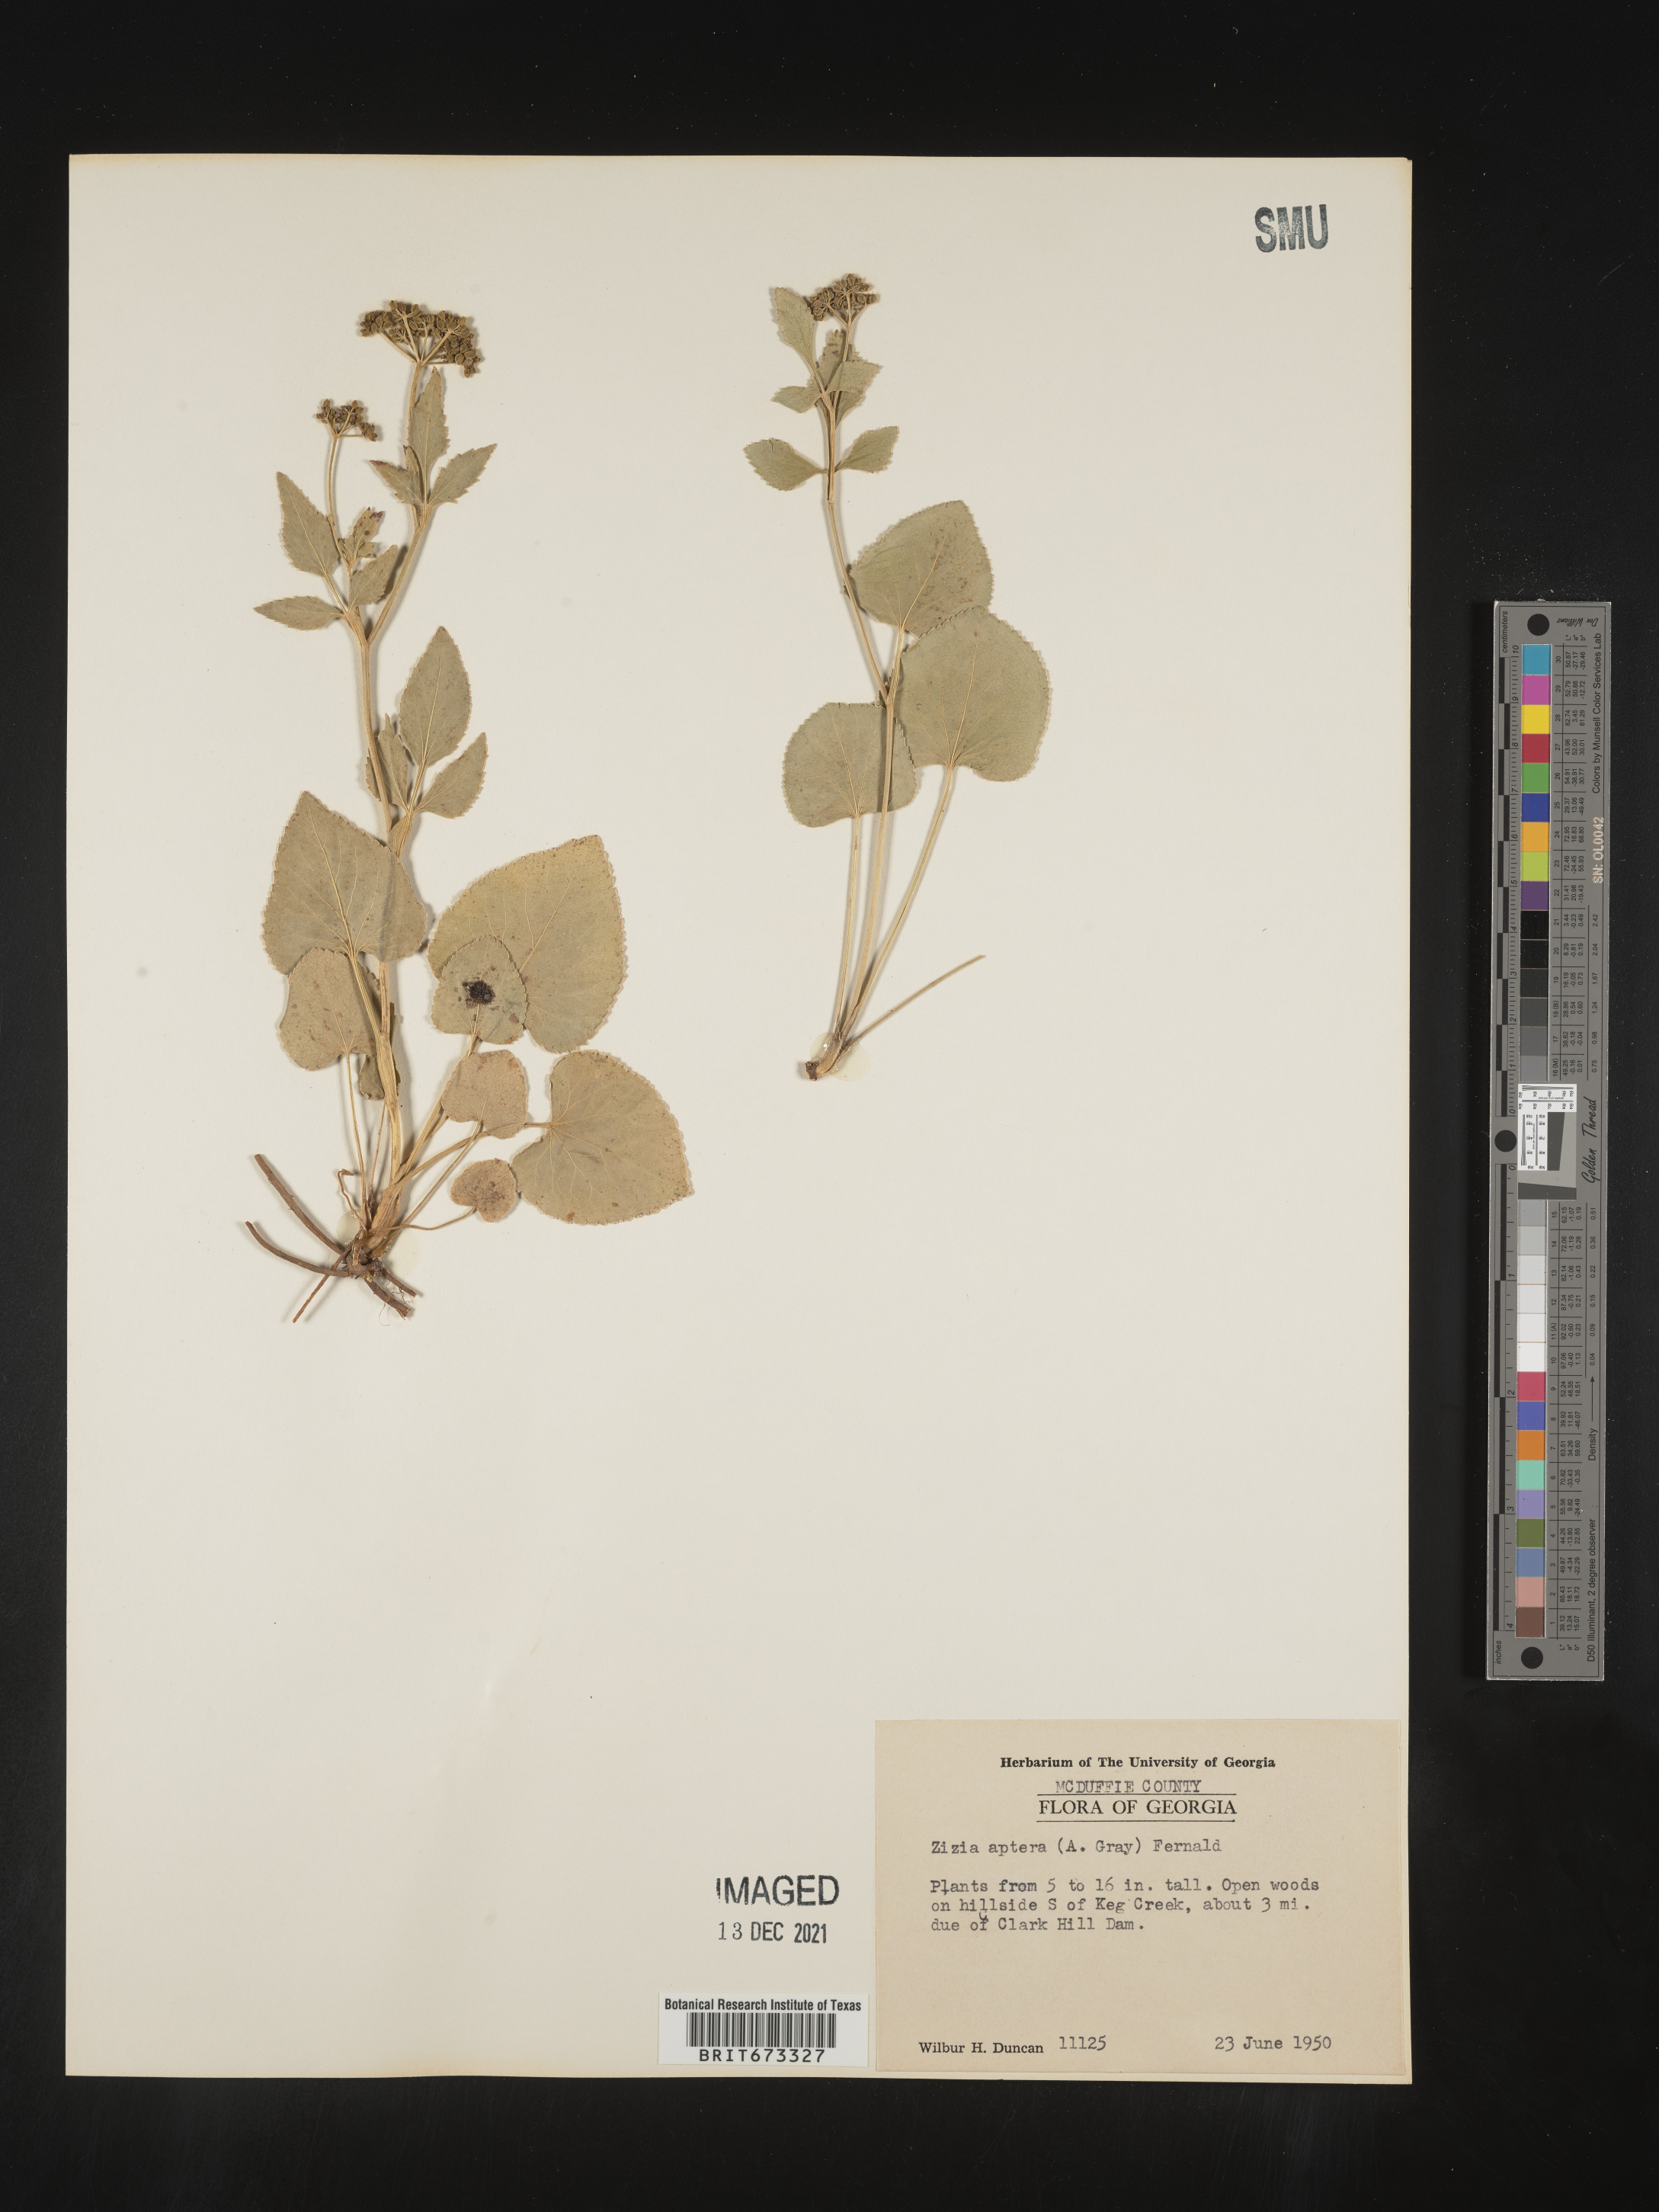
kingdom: Plantae
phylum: Tracheophyta
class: Magnoliopsida
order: Apiales
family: Apiaceae
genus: Zizia
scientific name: Zizia aptera
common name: Heart-leaved alexanders
